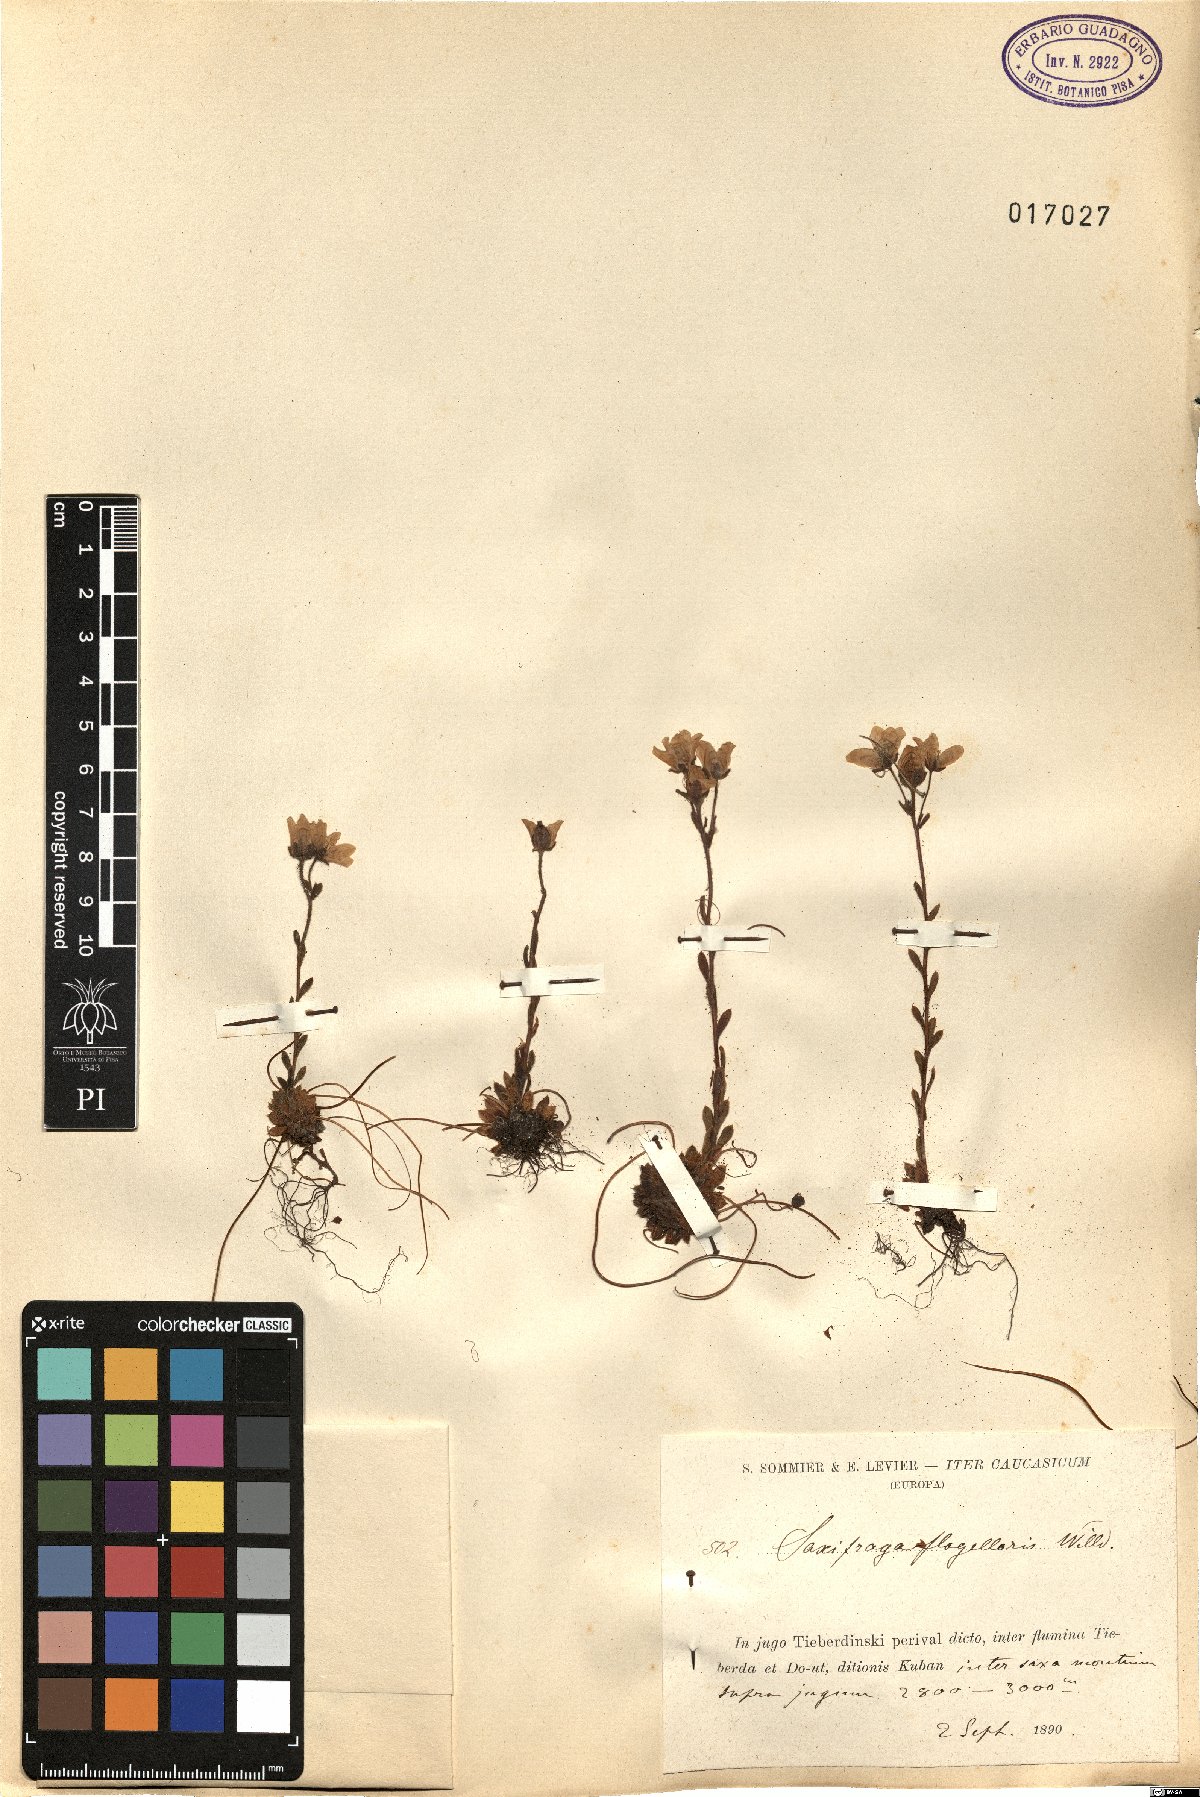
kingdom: Plantae
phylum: Tracheophyta
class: Magnoliopsida
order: Saxifragales
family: Saxifragaceae
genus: Saxifraga
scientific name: Saxifraga flagellaris
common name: Spider saxifrage
